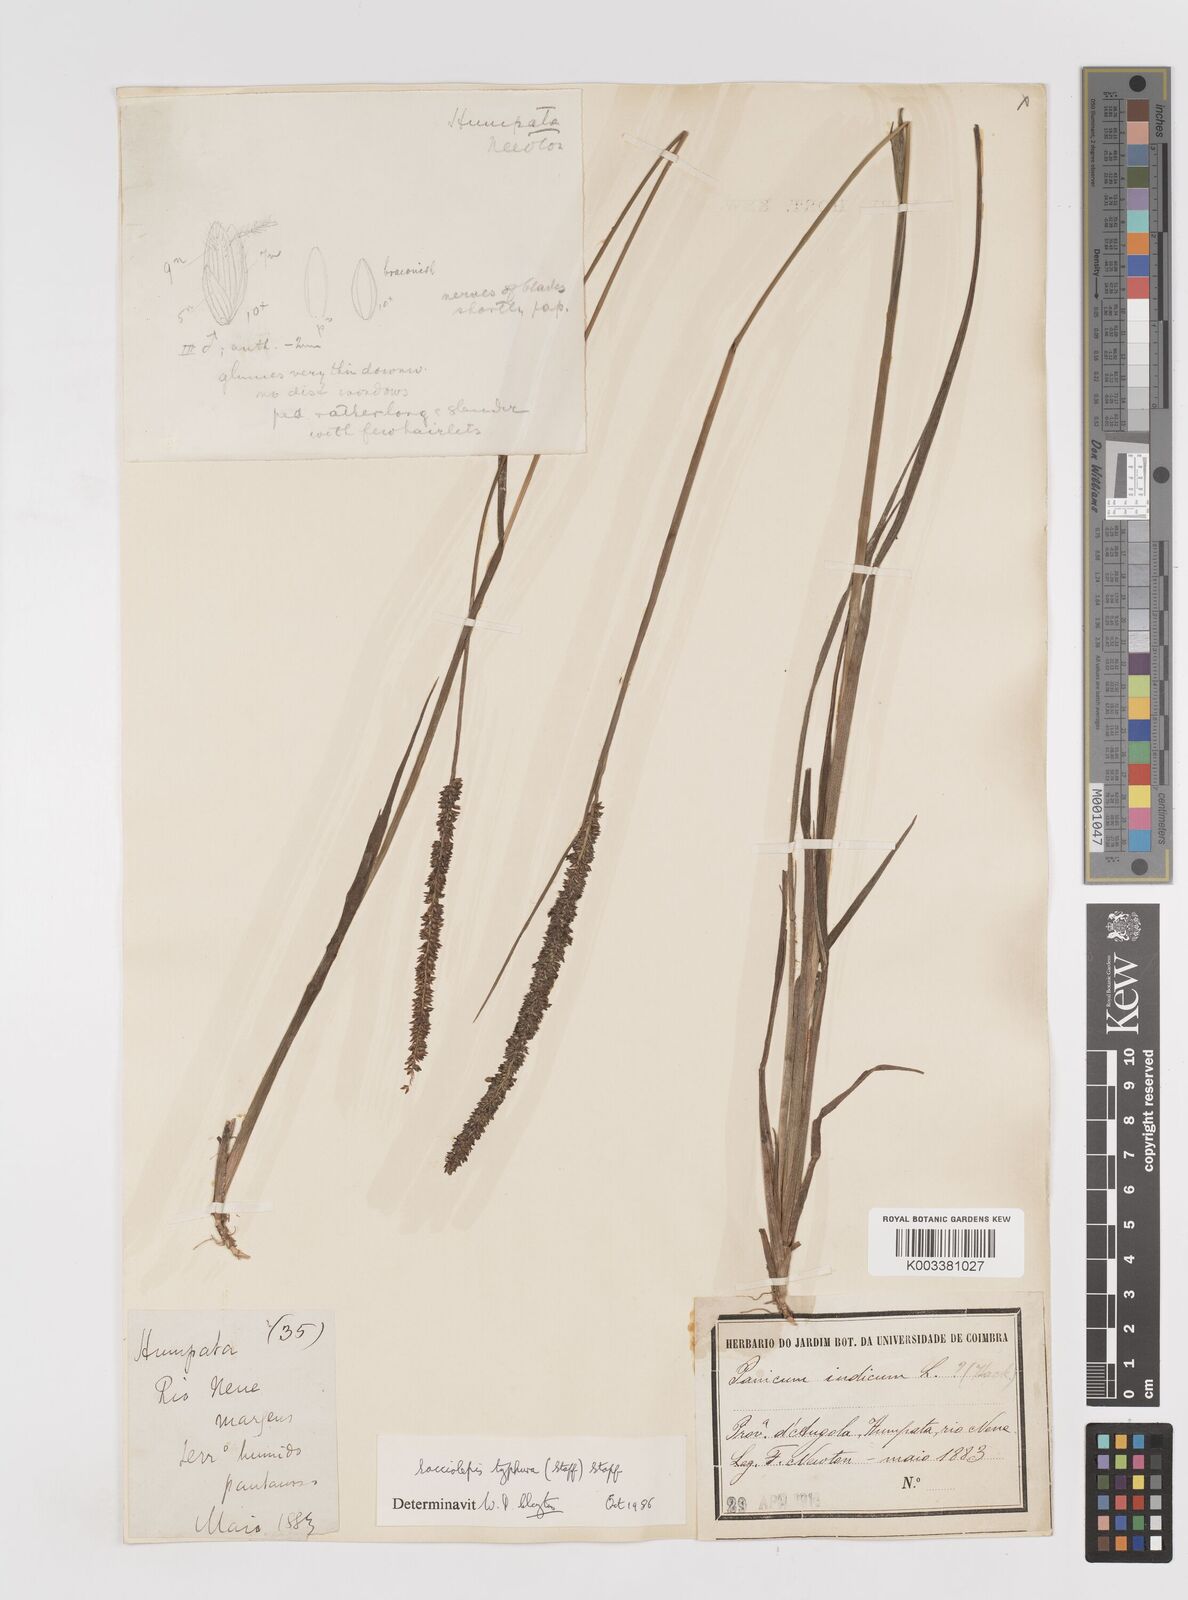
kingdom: Plantae
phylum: Tracheophyta
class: Liliopsida
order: Poales
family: Poaceae
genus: Sacciolepis
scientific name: Sacciolepis typhura
